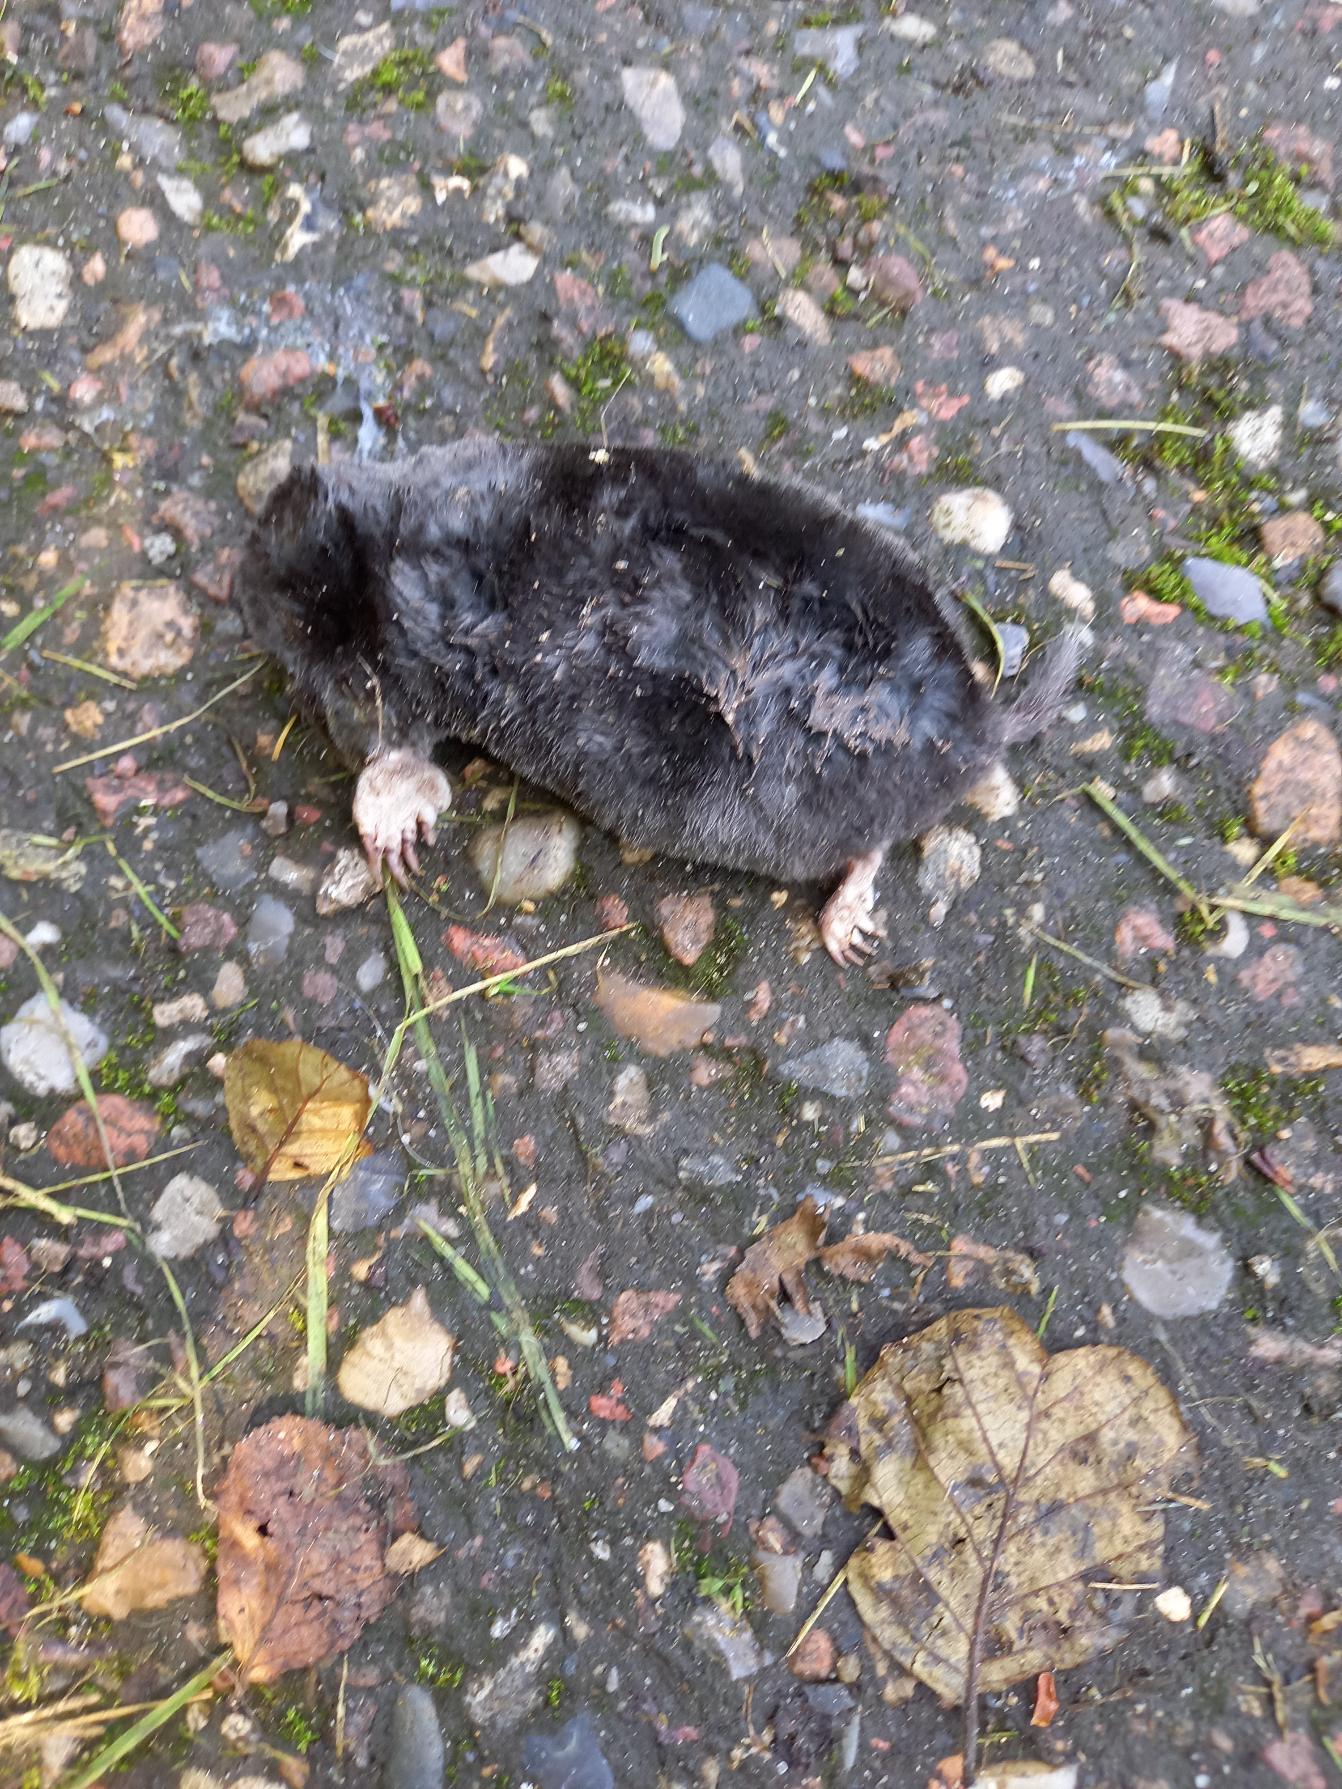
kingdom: Animalia
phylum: Chordata
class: Mammalia
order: Soricomorpha
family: Talpidae
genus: Talpa
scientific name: Talpa europaea
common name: Muldvarp
